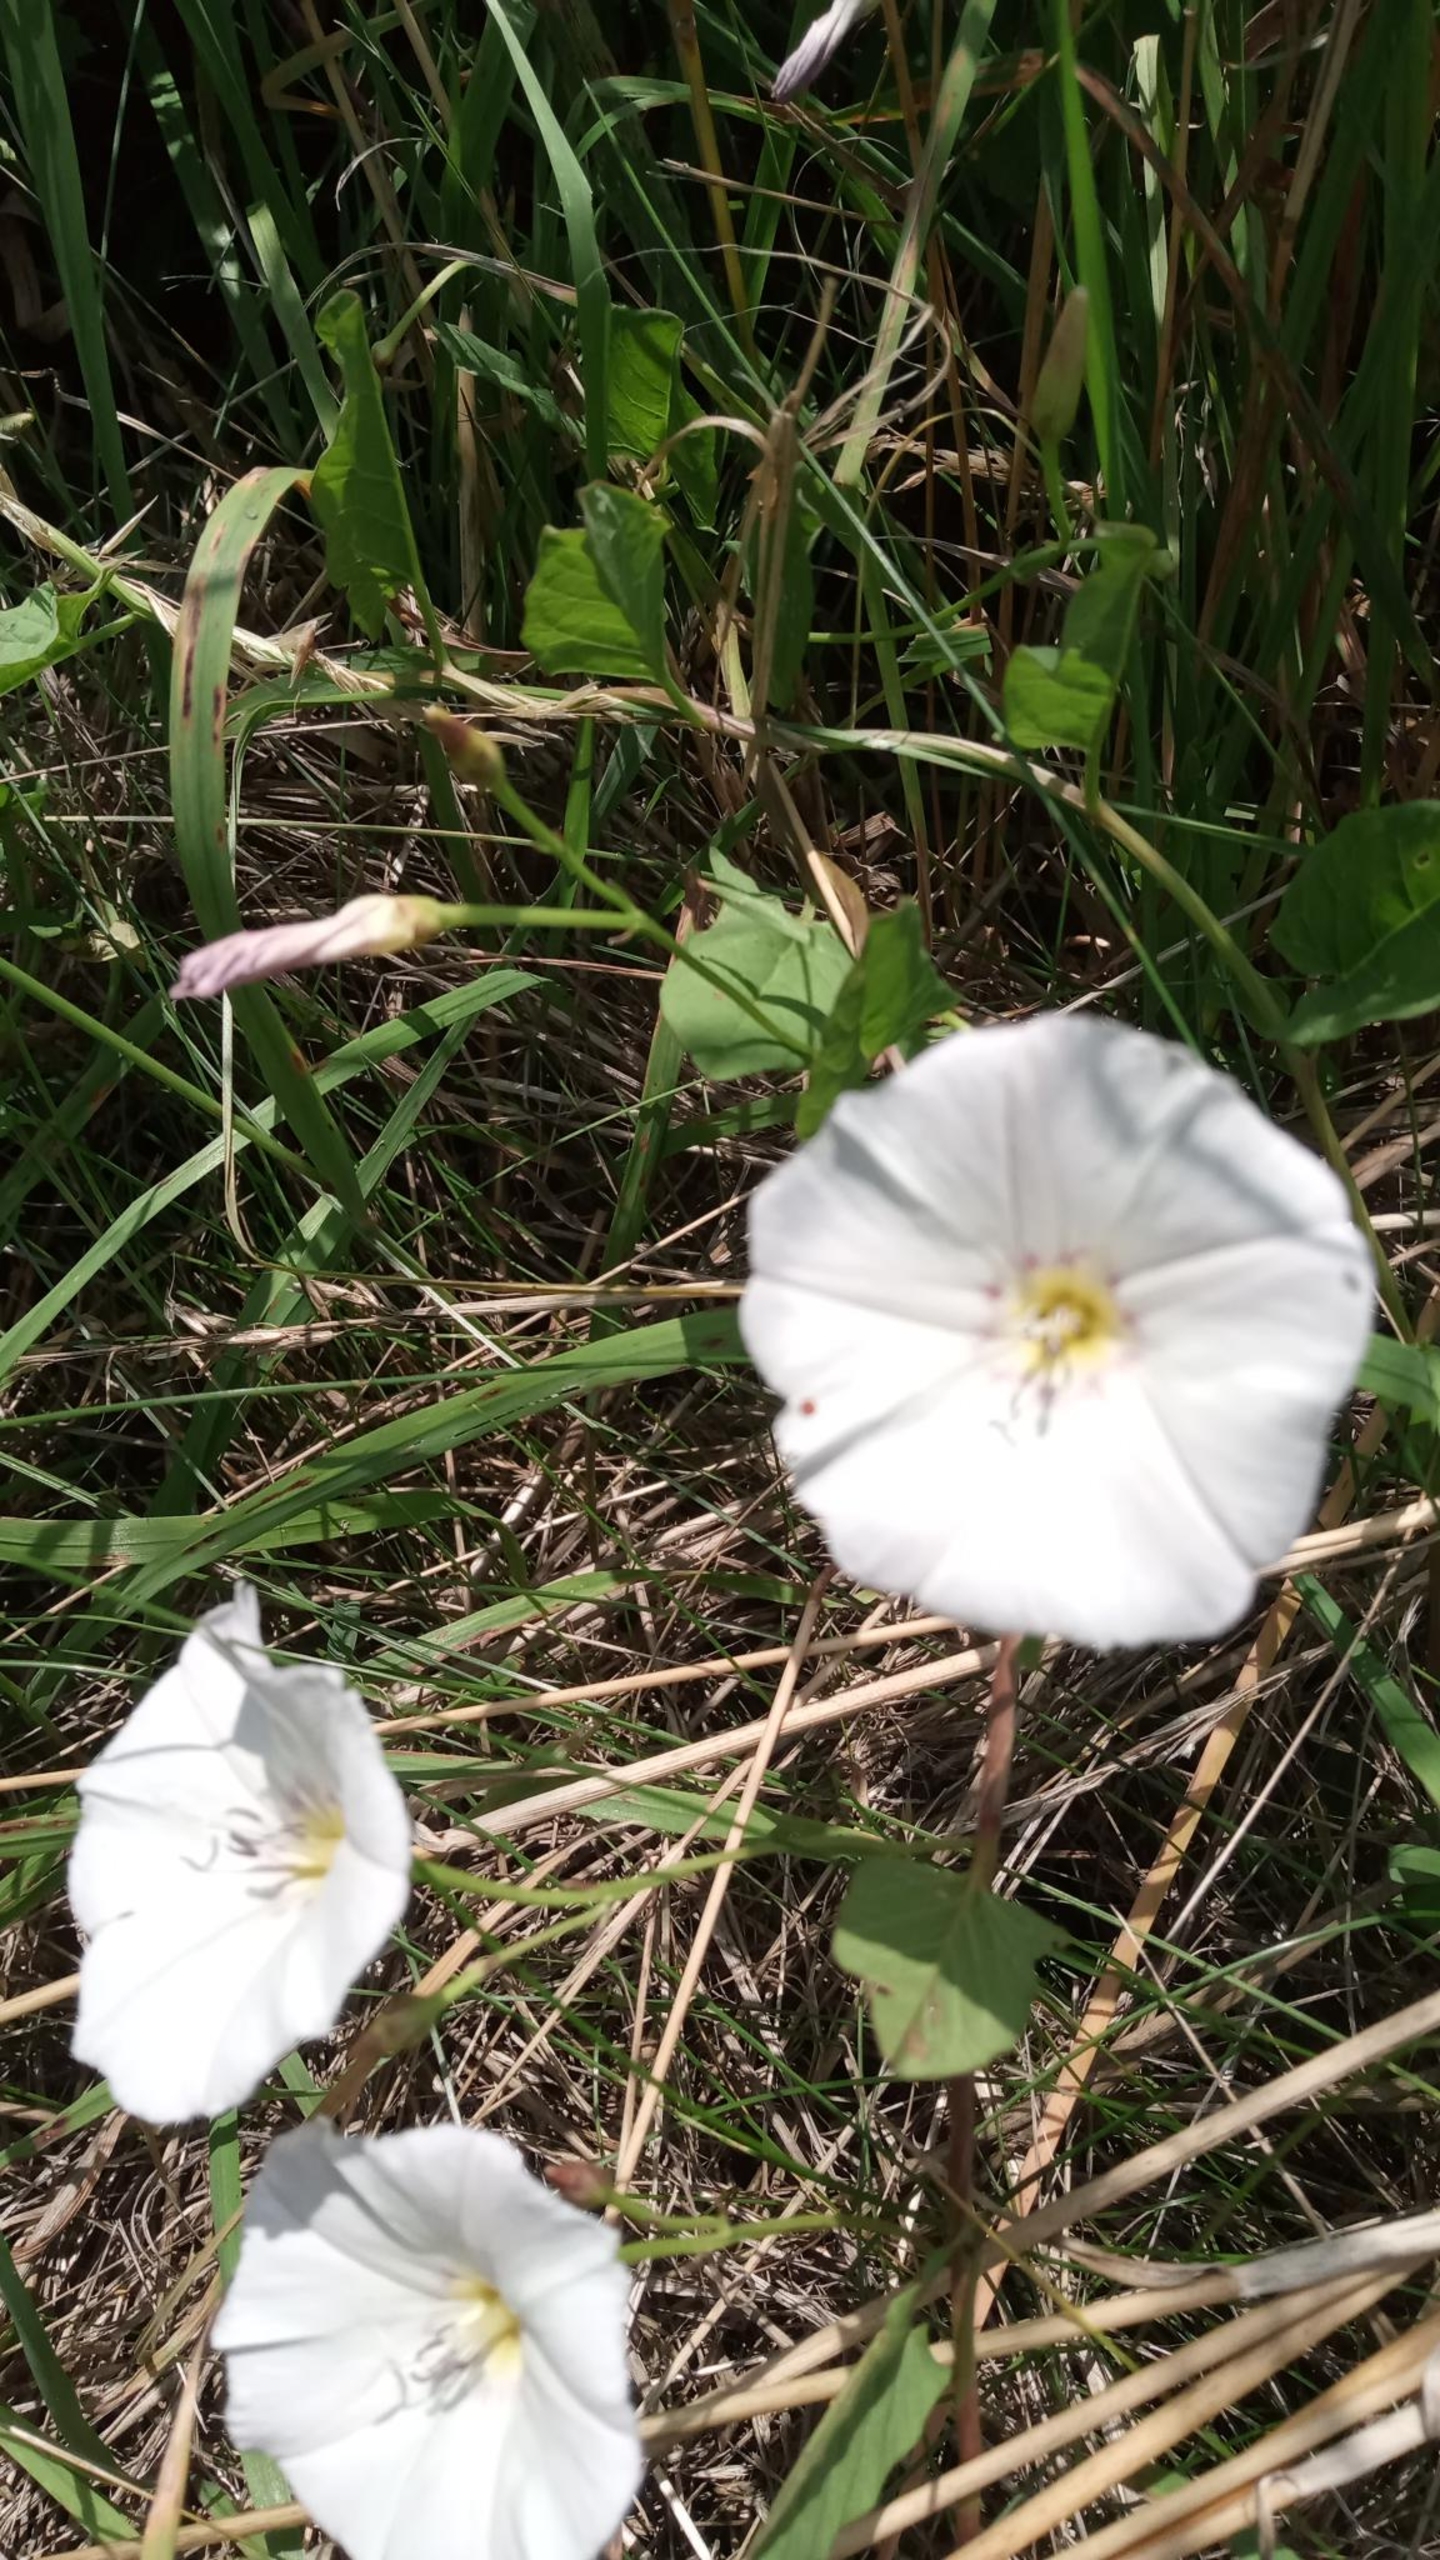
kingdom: Plantae
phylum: Tracheophyta
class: Magnoliopsida
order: Solanales
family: Convolvulaceae
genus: Convolvulus
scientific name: Convolvulus arvensis
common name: Ager-snerle
